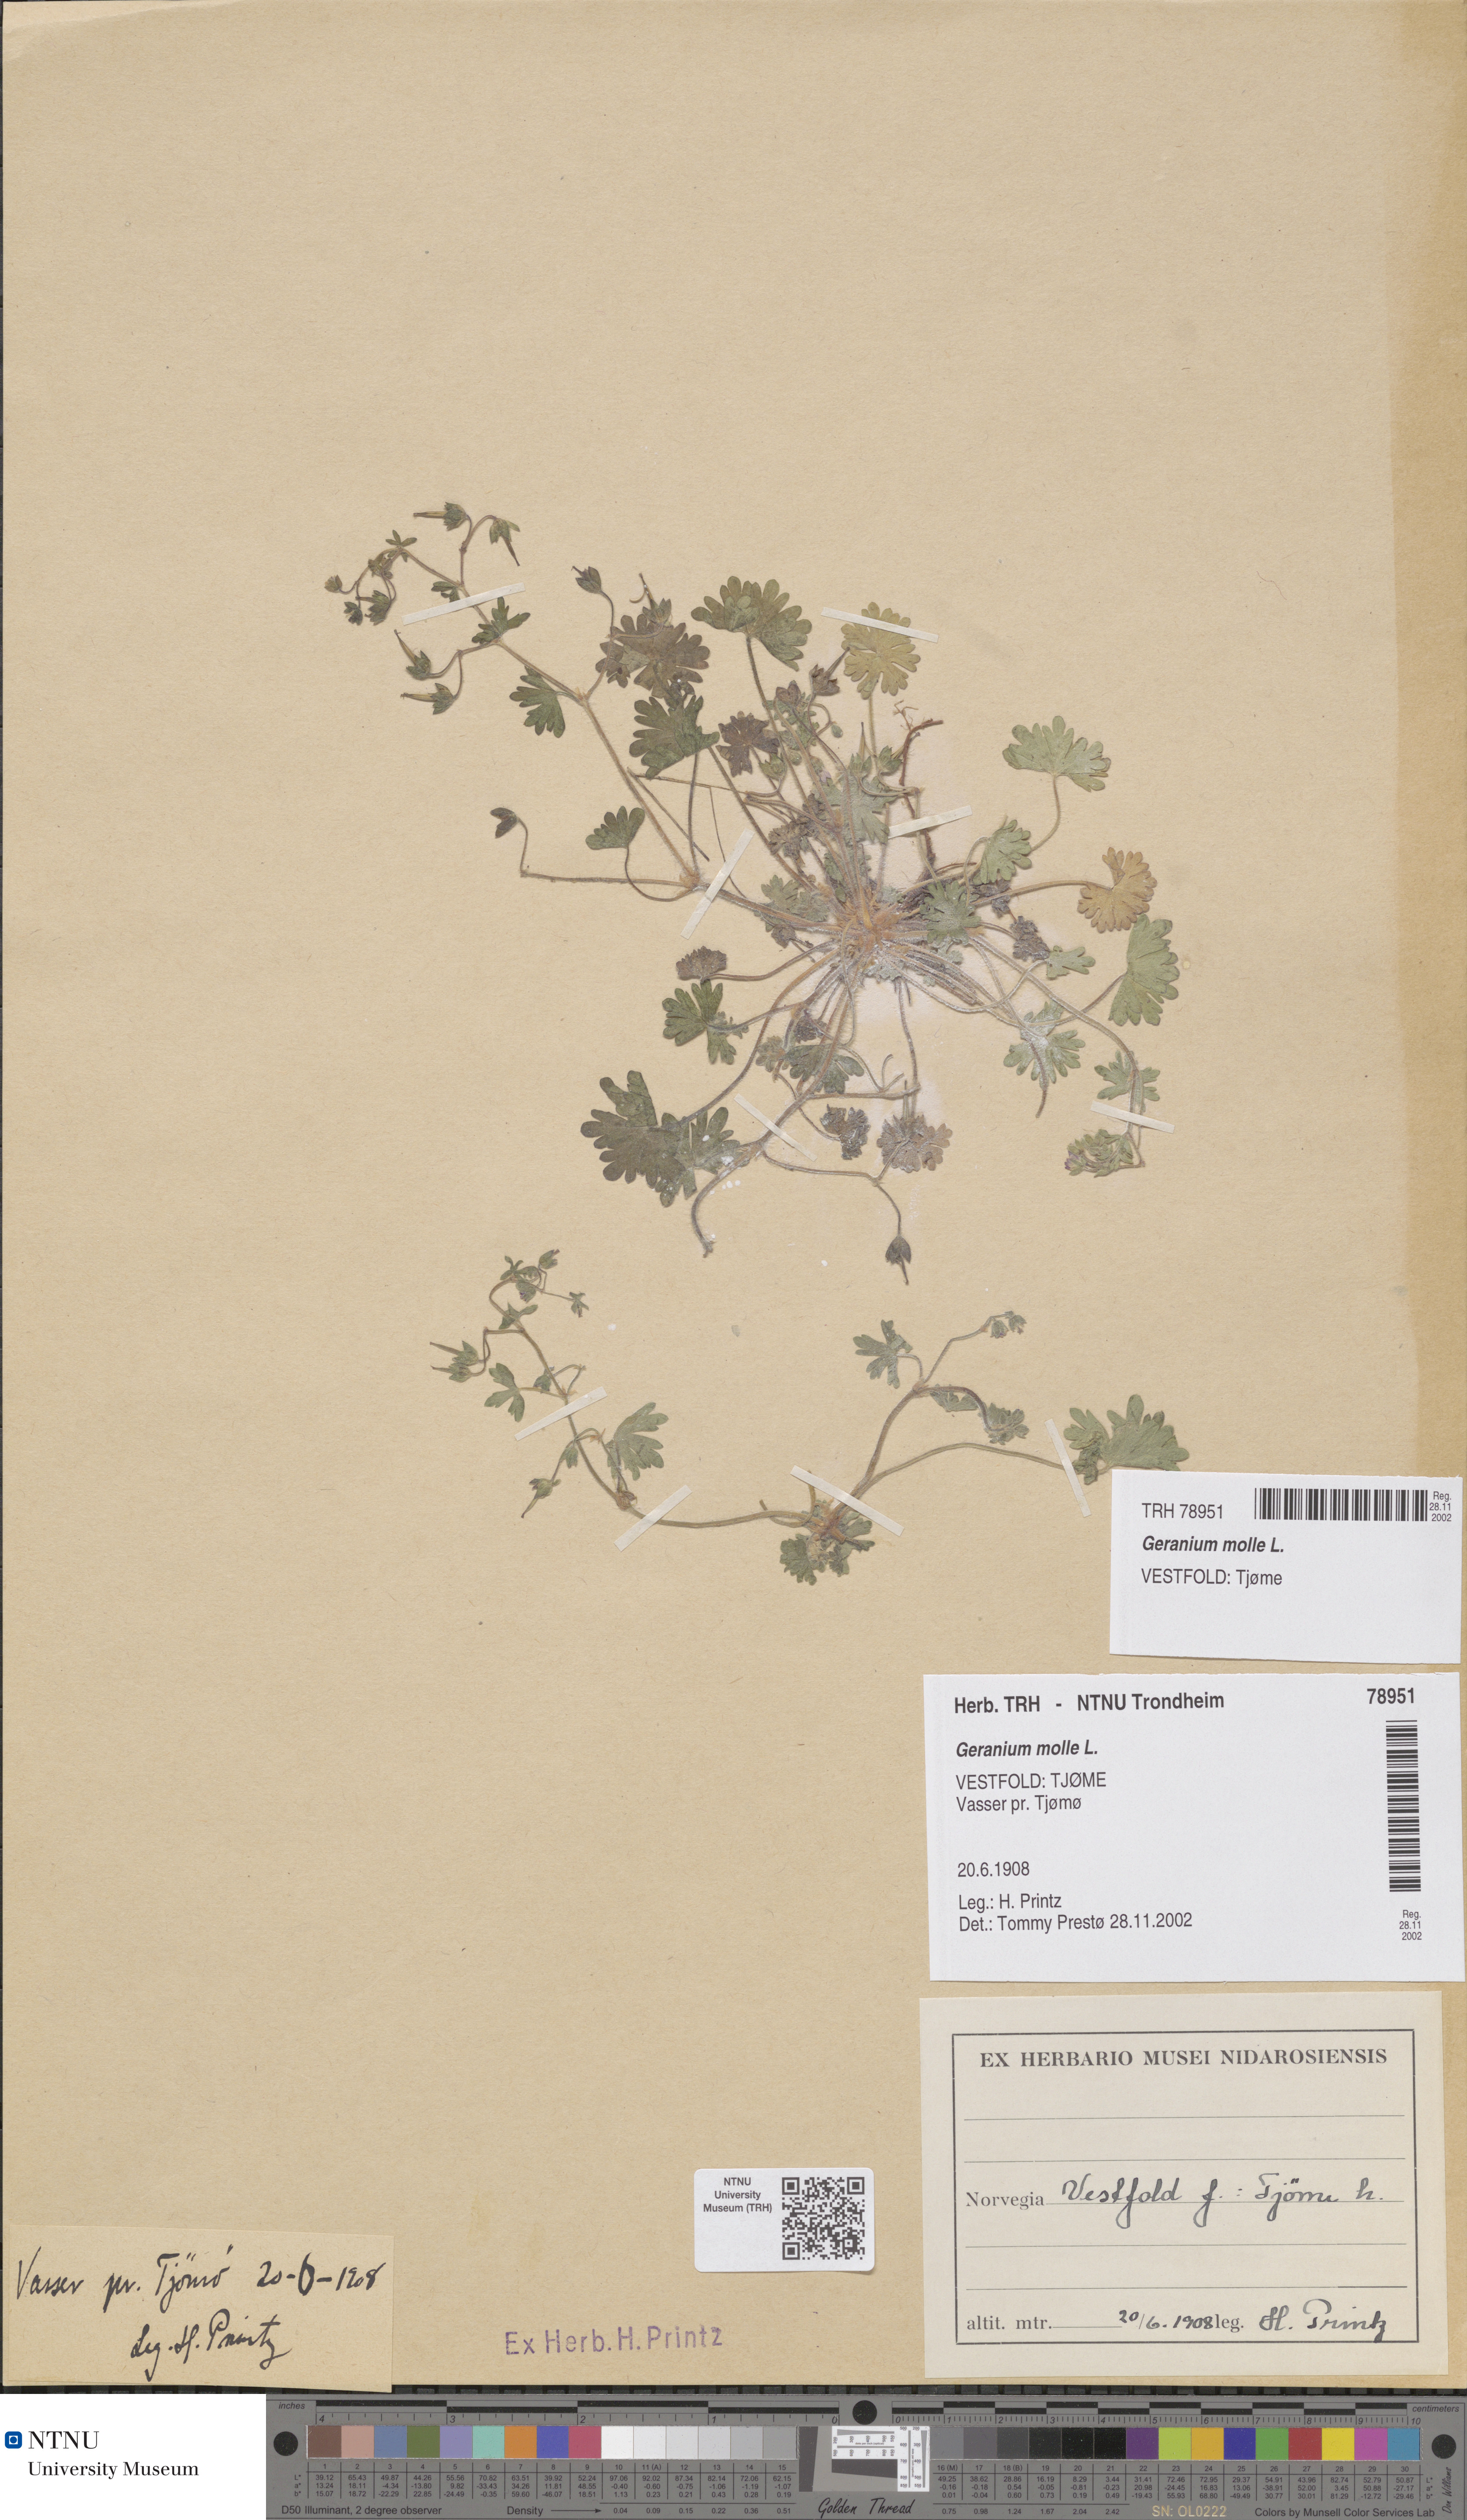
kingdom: Plantae
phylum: Tracheophyta
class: Magnoliopsida
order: Geraniales
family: Geraniaceae
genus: Geranium
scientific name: Geranium molle
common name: Dove's-foot crane's-bill
